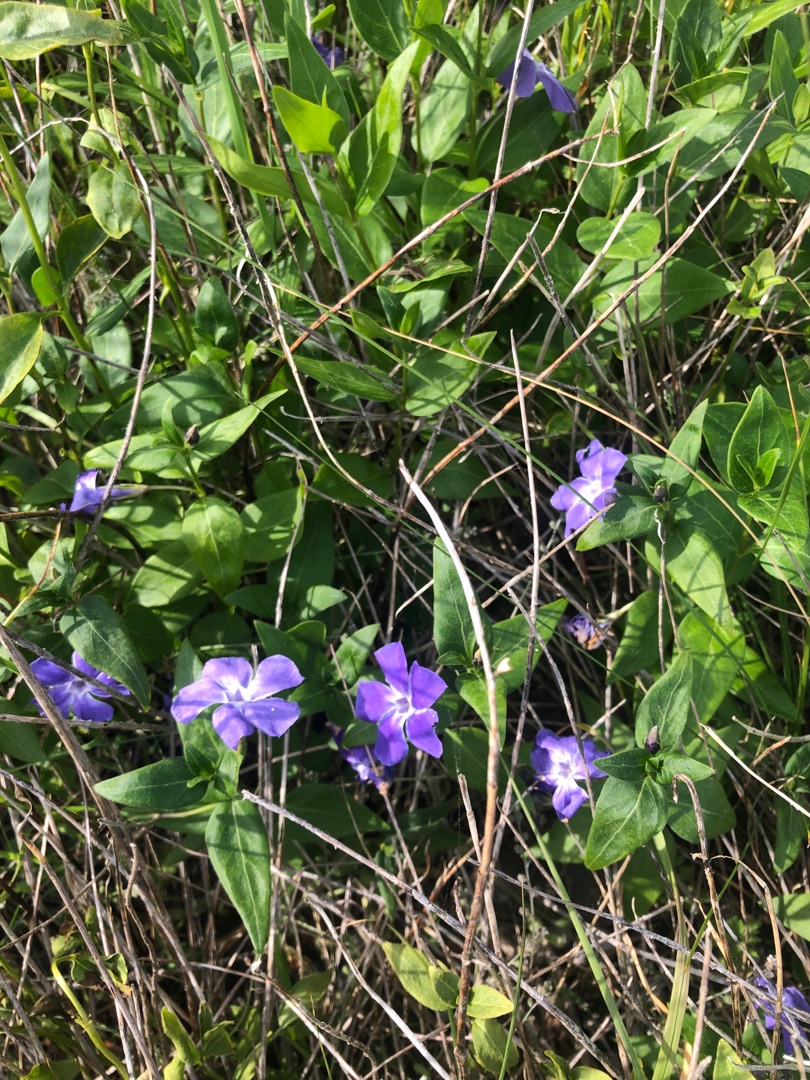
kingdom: Plantae
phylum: Tracheophyta
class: Magnoliopsida
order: Gentianales
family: Apocynaceae
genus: Vinca
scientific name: Vinca minor
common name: Liden singrøn
